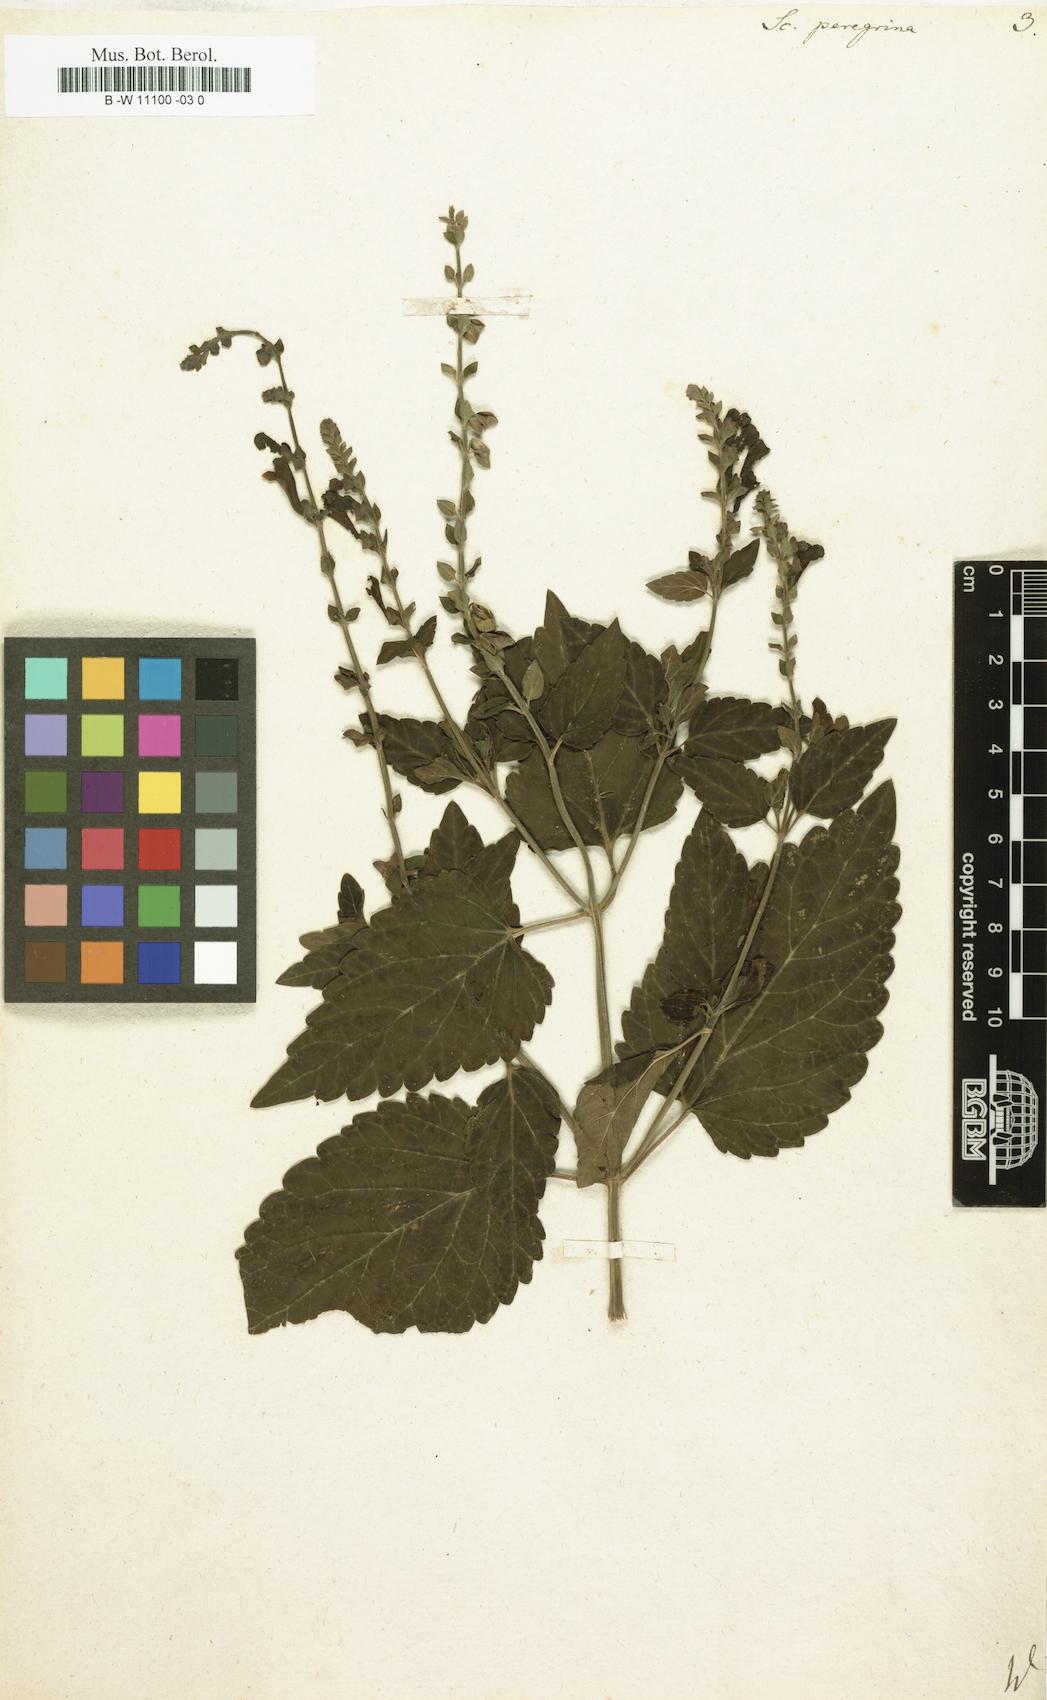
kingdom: Plantae
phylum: Tracheophyta
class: Magnoliopsida
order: Lamiales
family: Lamiaceae
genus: Scutellaria
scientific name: Scutellaria peregrina
